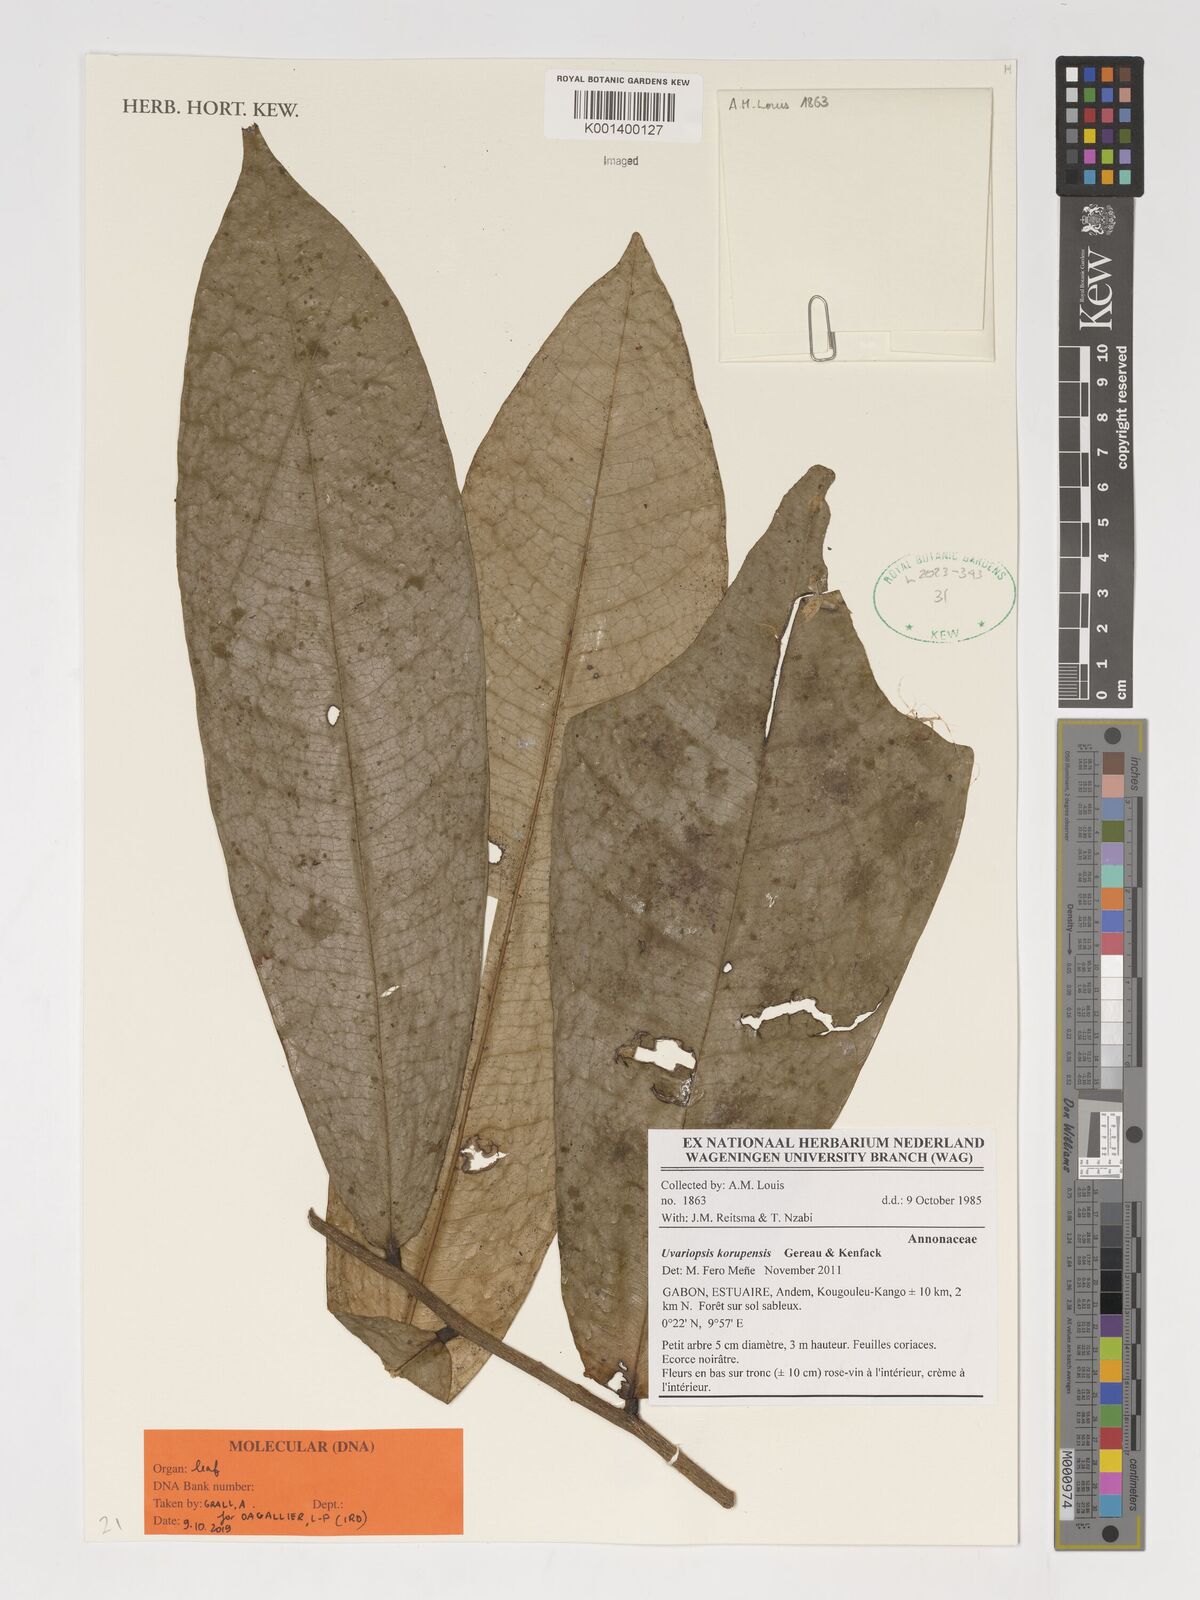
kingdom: Plantae
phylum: Tracheophyta
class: Magnoliopsida
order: Magnoliales
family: Annonaceae
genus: Uvariopsis
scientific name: Uvariopsis korupensis
